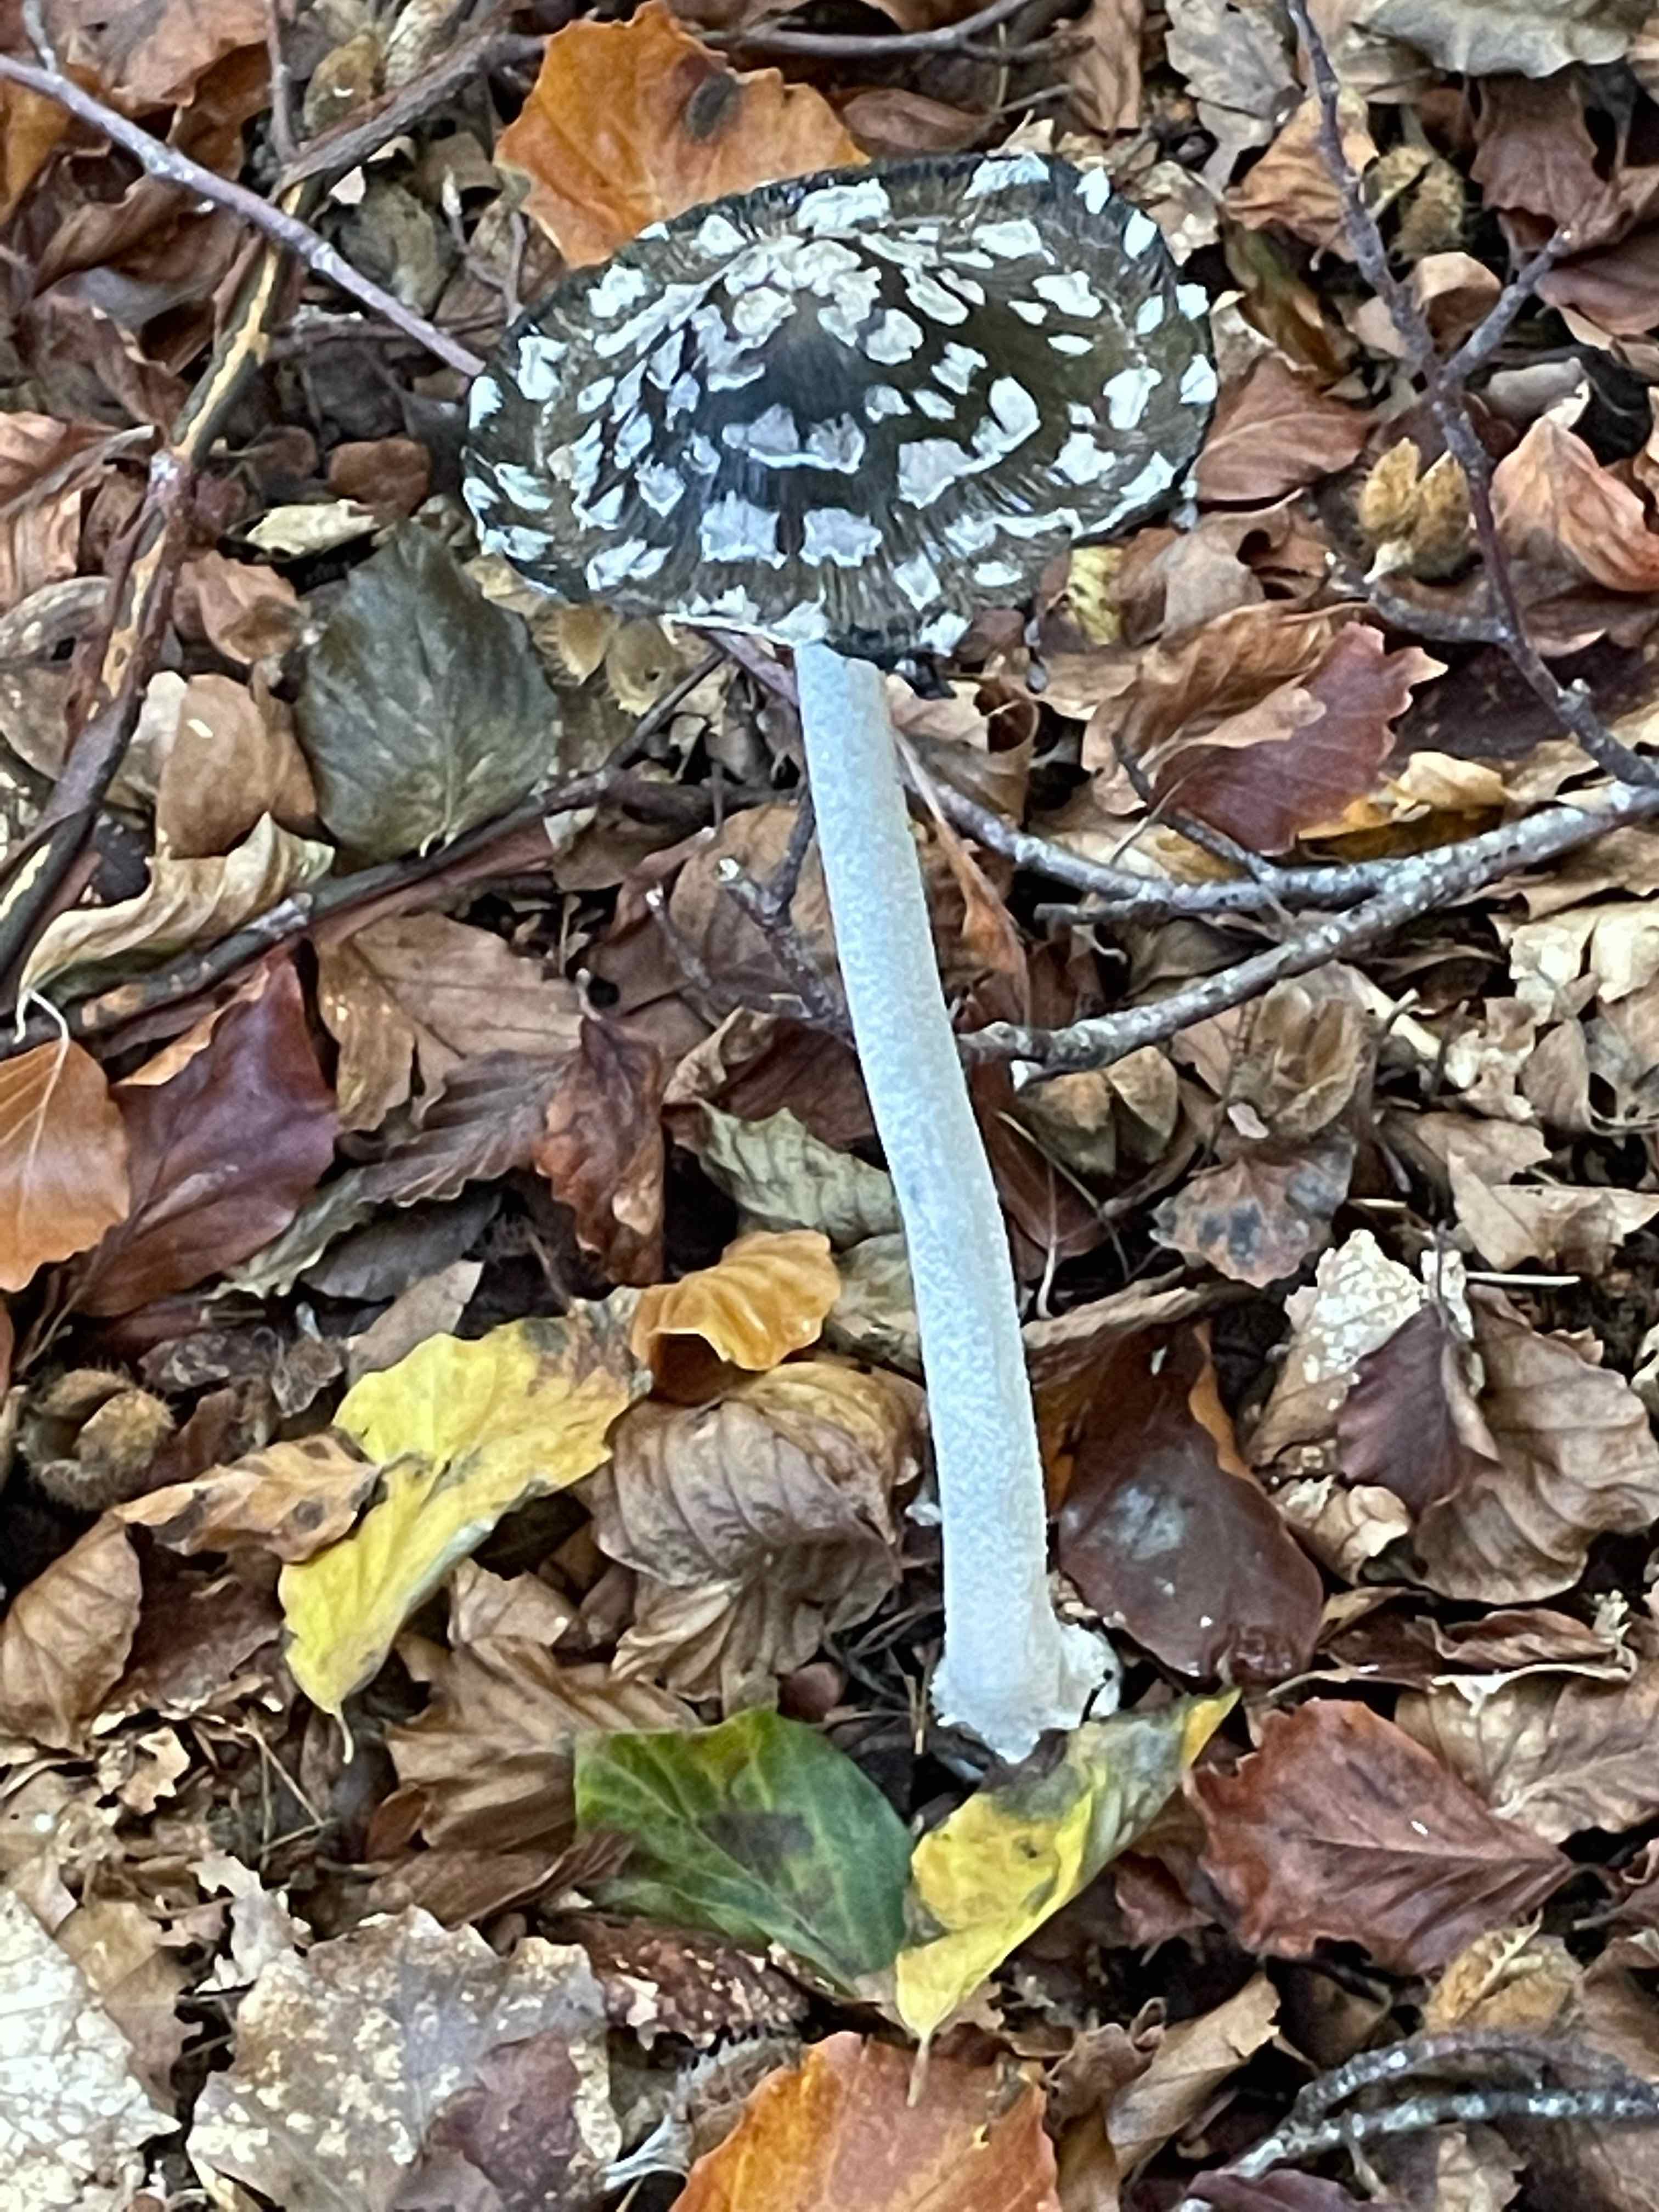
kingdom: Fungi
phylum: Basidiomycota
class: Agaricomycetes
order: Agaricales
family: Psathyrellaceae
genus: Coprinopsis
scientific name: Coprinopsis picacea
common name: skade-blækhat
